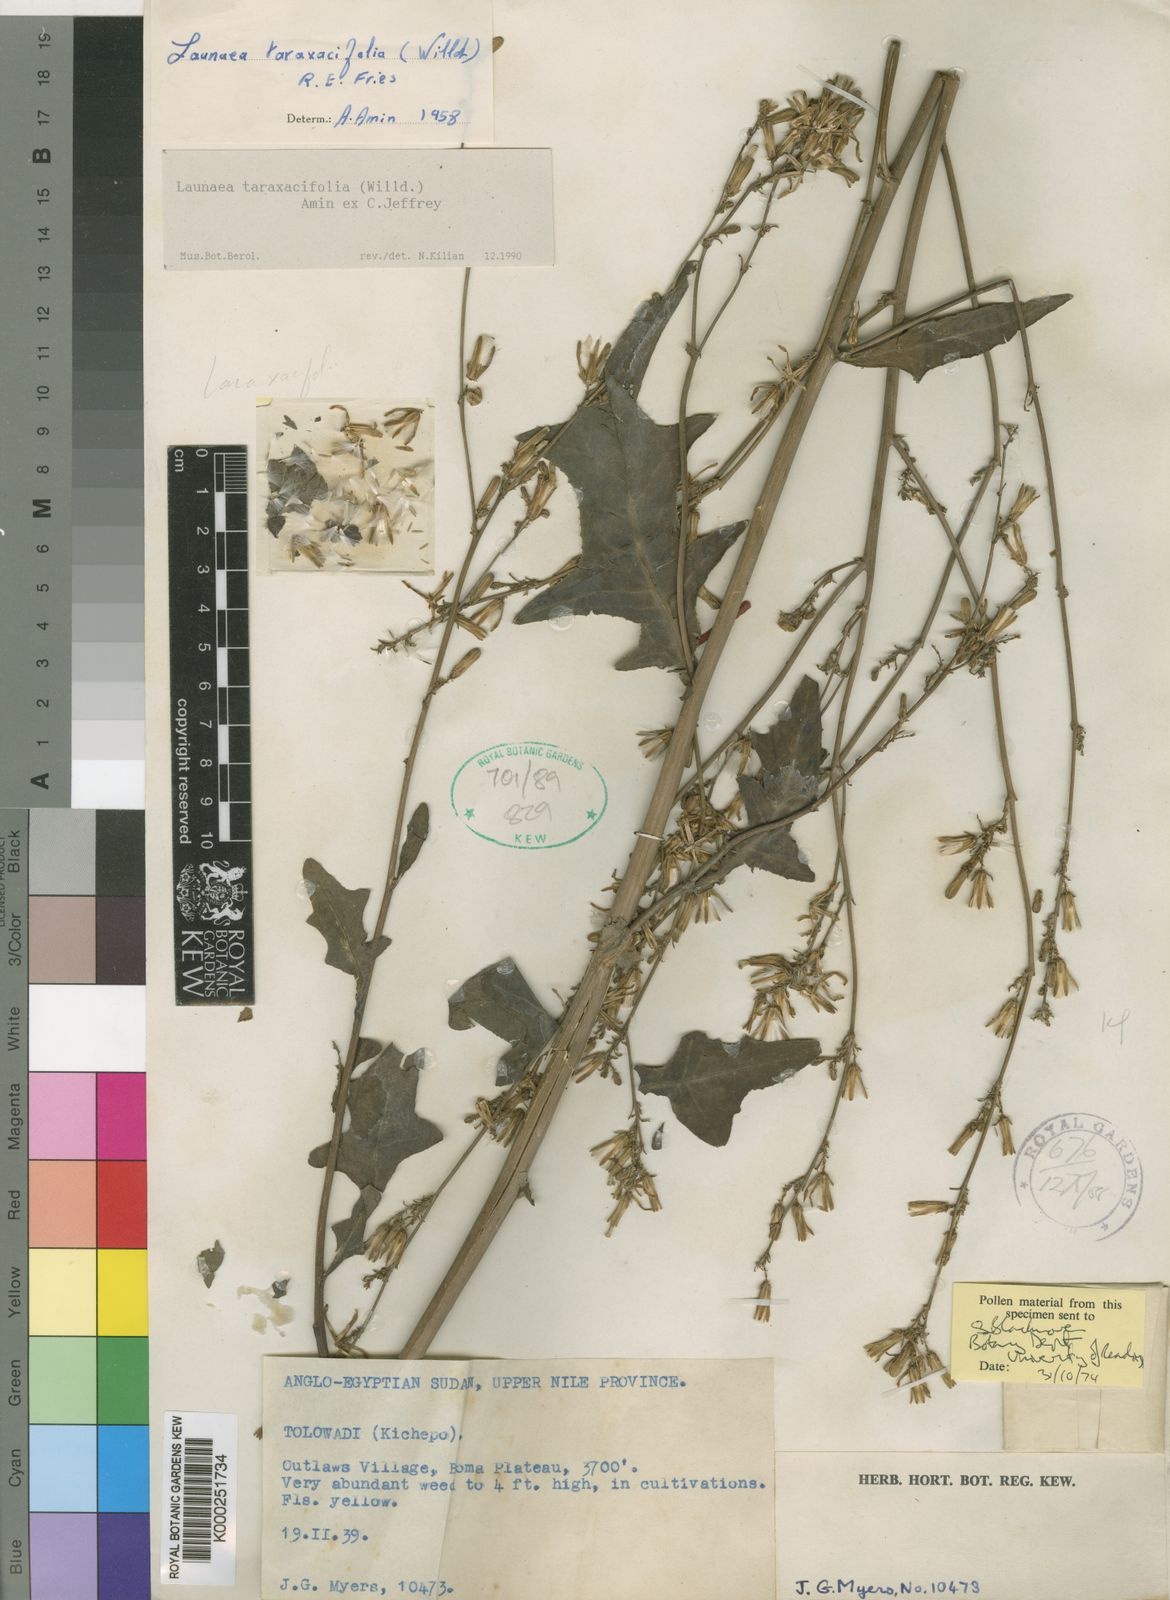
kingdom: Plantae
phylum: Tracheophyta
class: Magnoliopsida
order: Asterales
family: Asteraceae
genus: Launaea
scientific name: Launaea taraxacifolia
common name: African-lettuce
